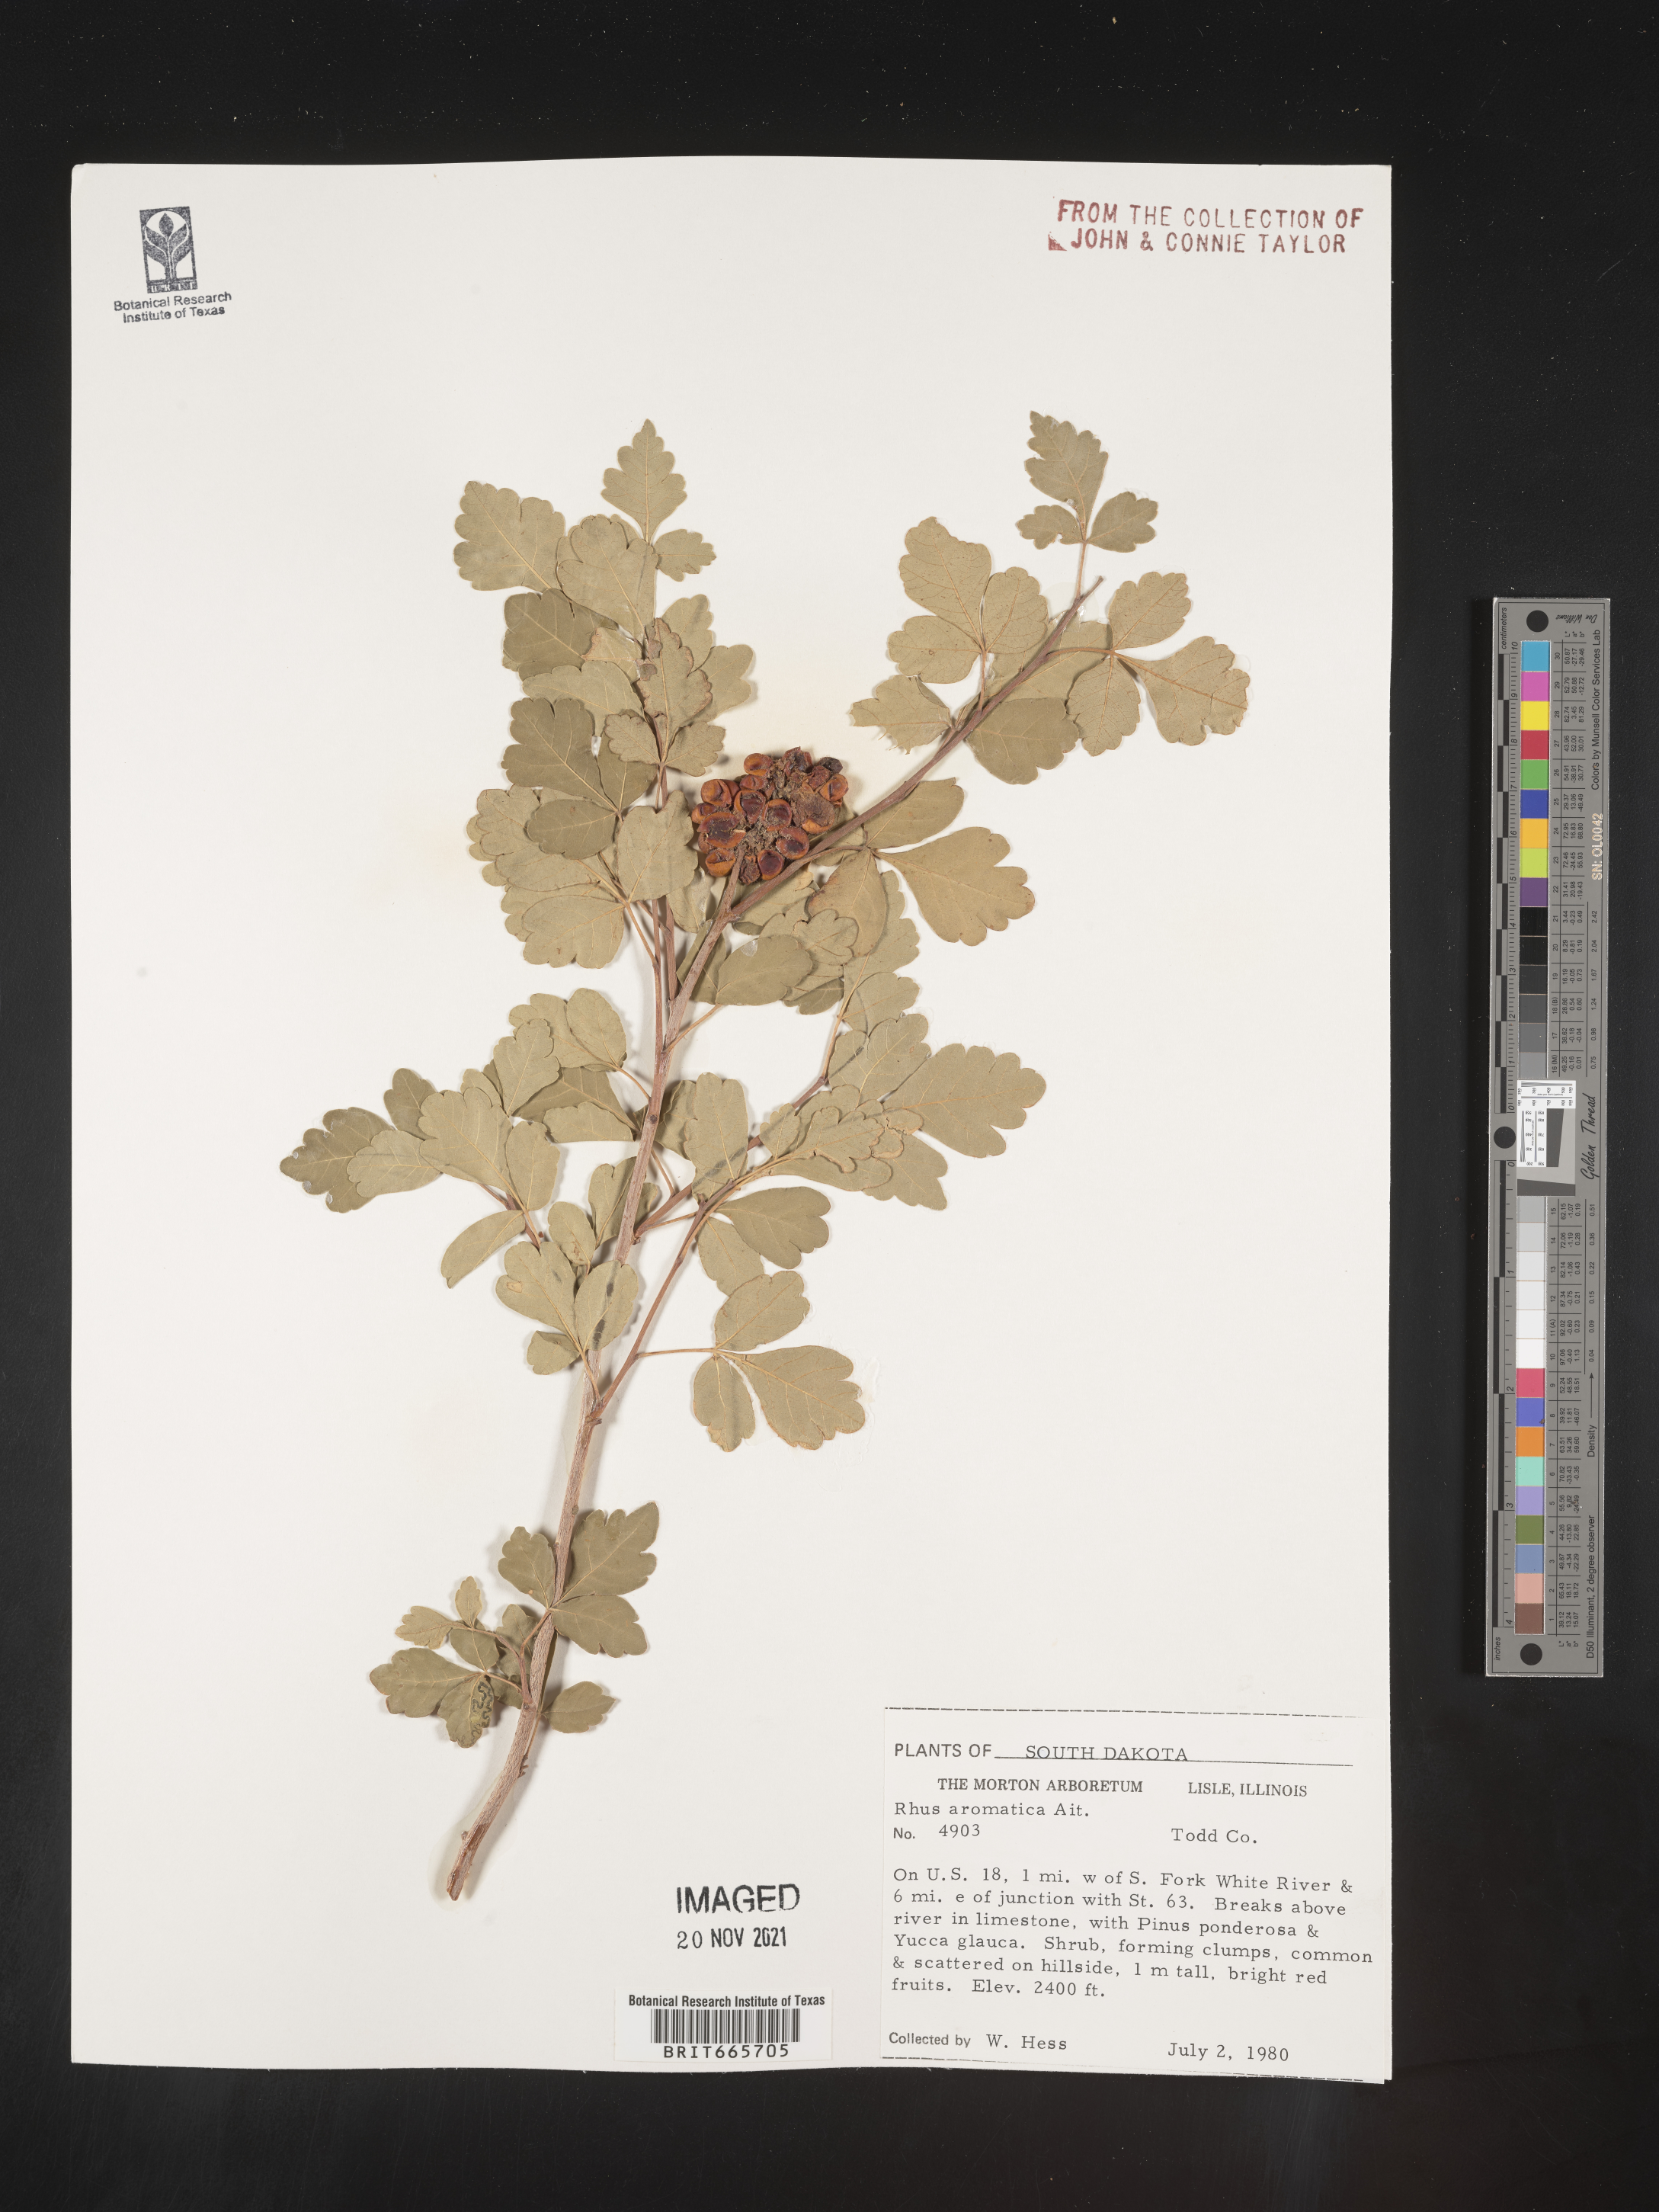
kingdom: Plantae
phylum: Tracheophyta
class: Magnoliopsida
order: Sapindales
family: Anacardiaceae
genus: Rhus
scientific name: Rhus aromatica
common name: Aromatic sumac
